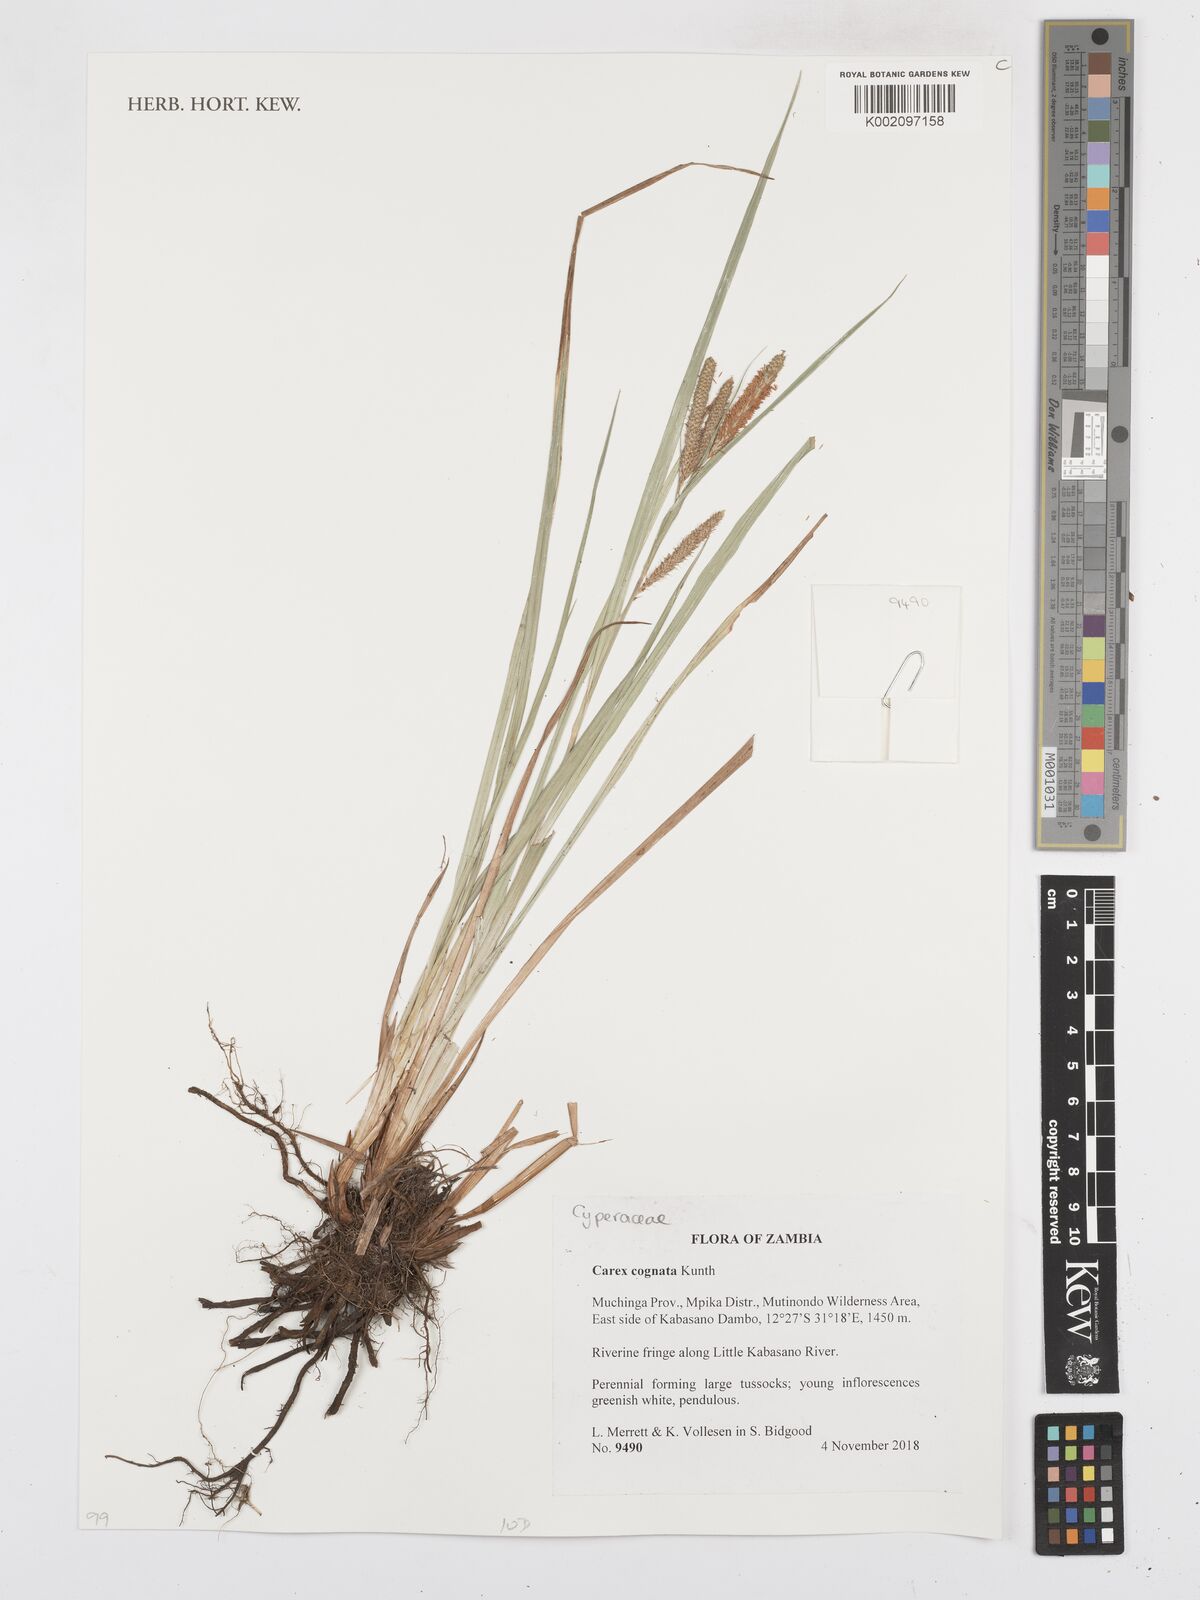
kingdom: Plantae
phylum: Tracheophyta
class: Liliopsida
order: Poales
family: Cyperaceae
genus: Carex
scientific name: Carex congolensis
